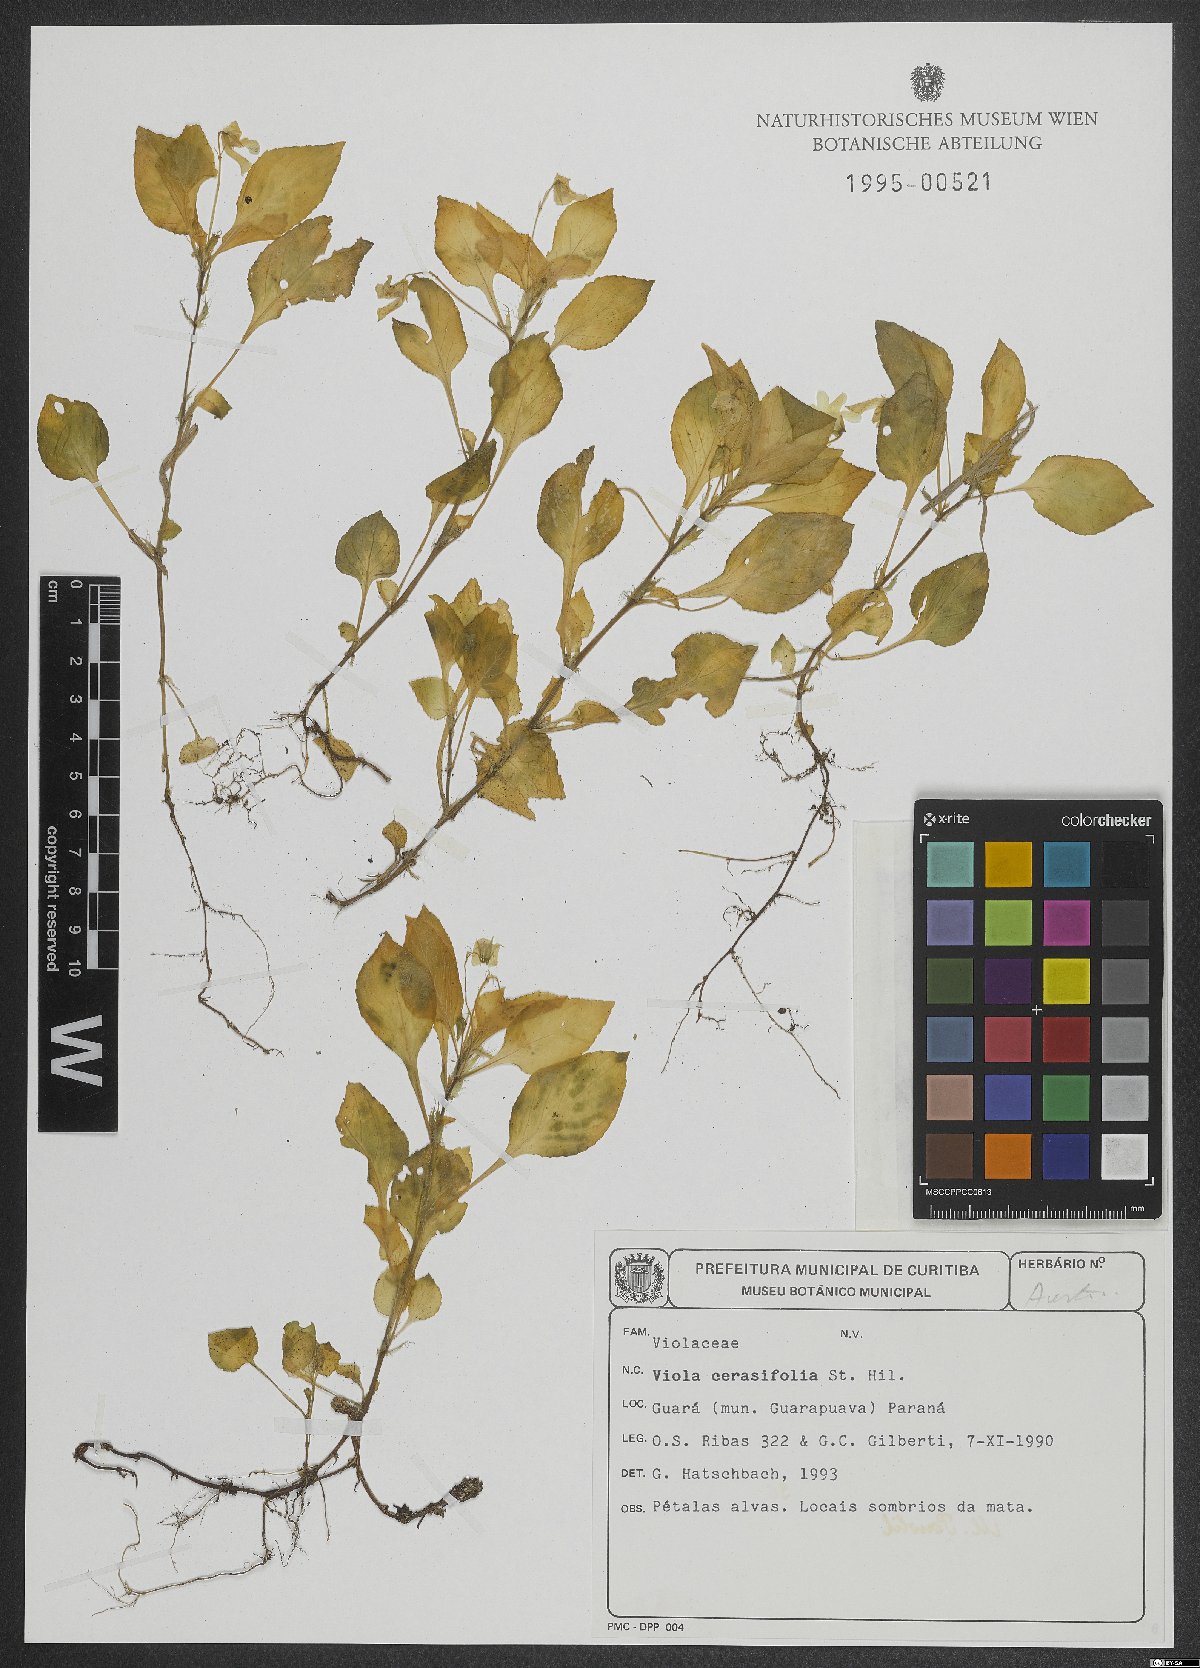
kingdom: Plantae
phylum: Tracheophyta
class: Magnoliopsida
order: Malpighiales
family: Violaceae
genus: Viola
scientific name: Viola cerasifolia
